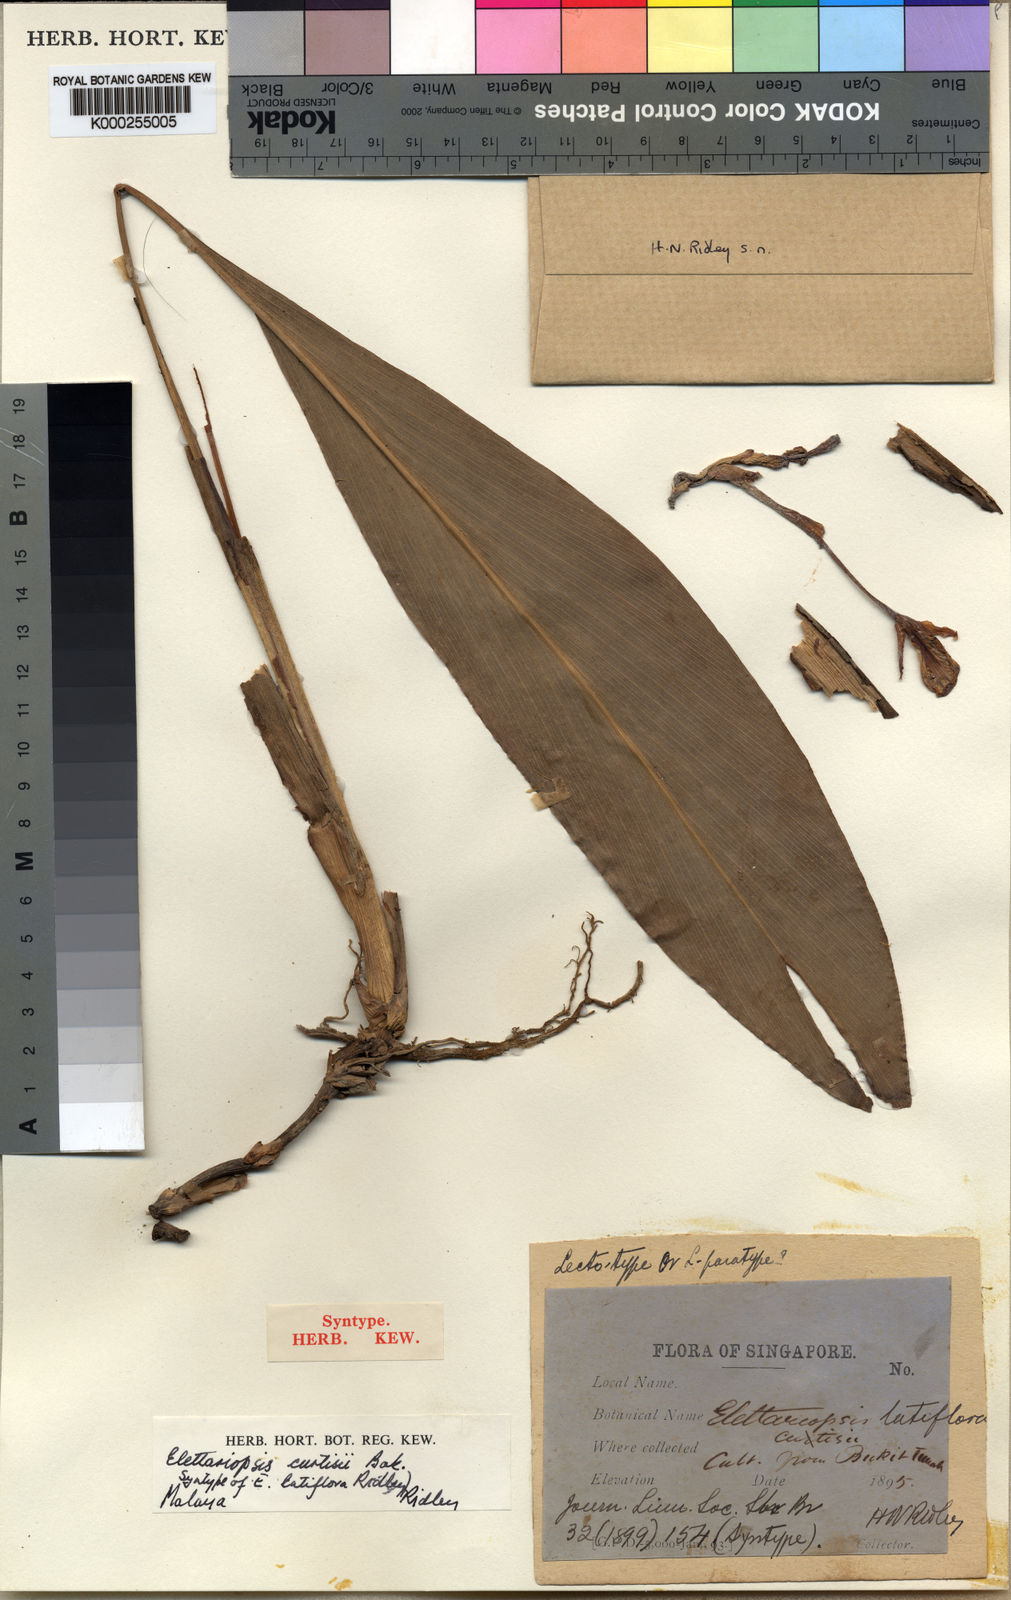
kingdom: Plantae
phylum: Tracheophyta
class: Liliopsida
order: Zingiberales
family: Zingiberaceae
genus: Amomum
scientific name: Amomum curtisii
